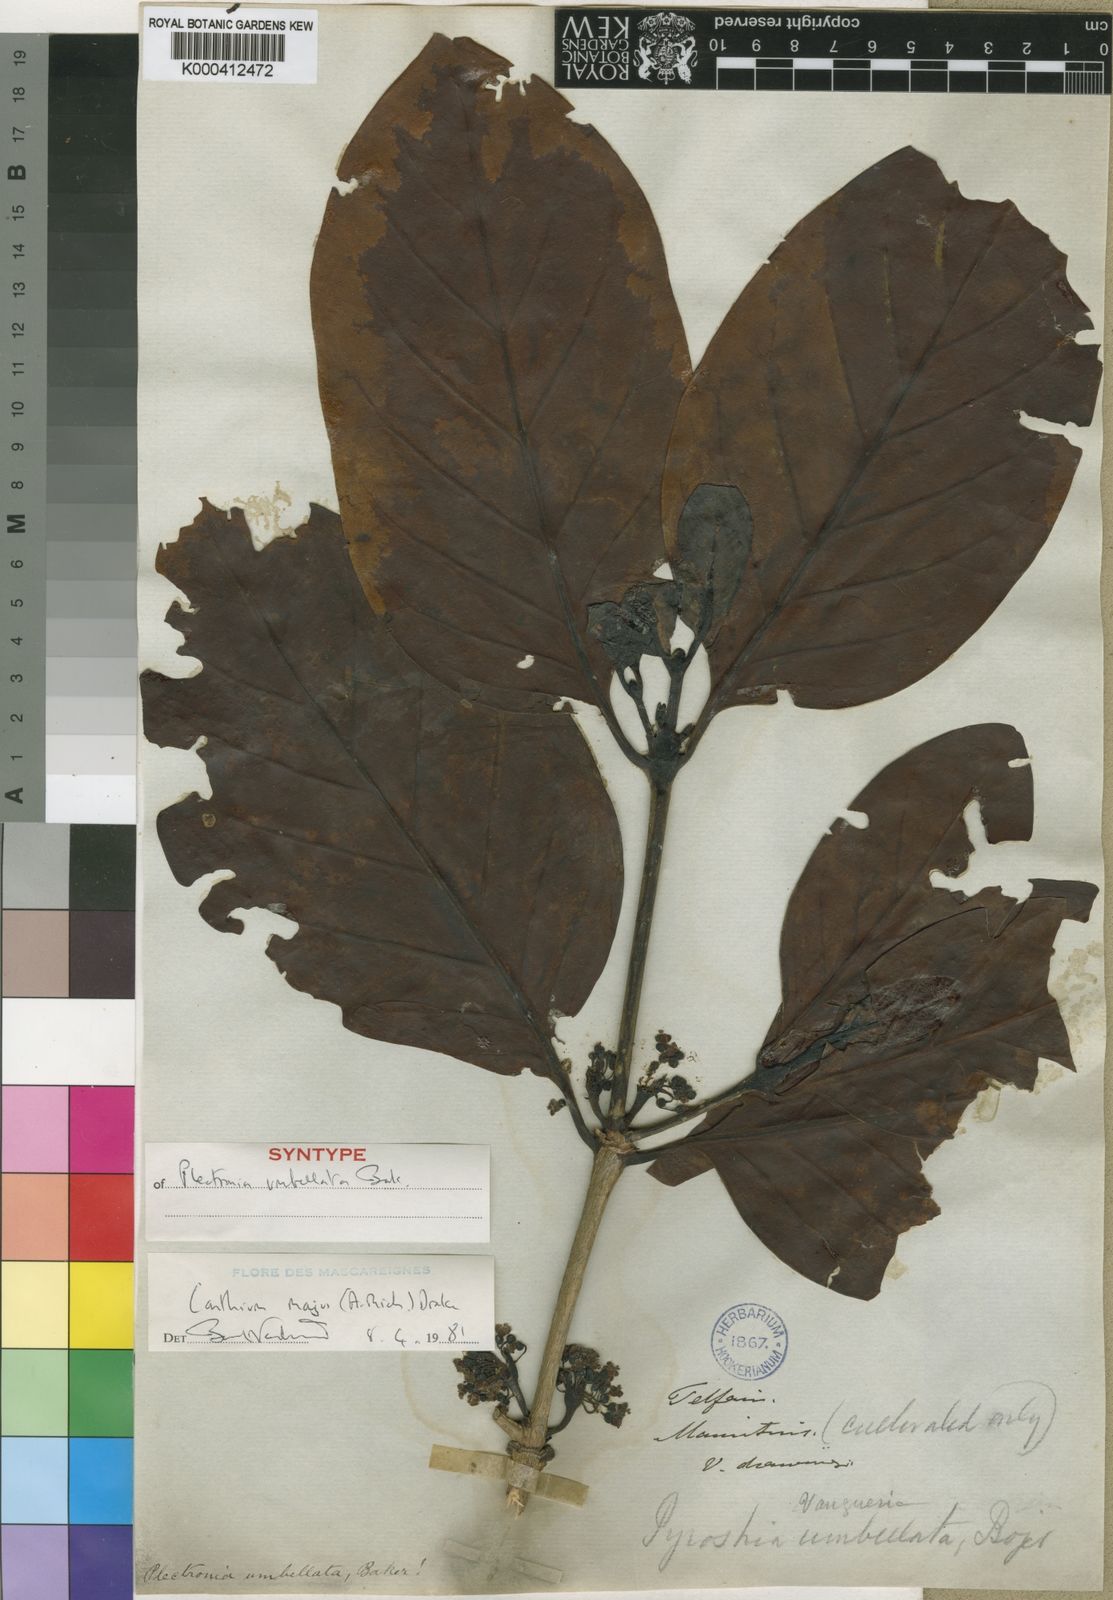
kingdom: Plantae
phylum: Tracheophyta
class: Magnoliopsida
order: Gentianales
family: Rubiaceae
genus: Pyrostria
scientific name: Pyrostria
